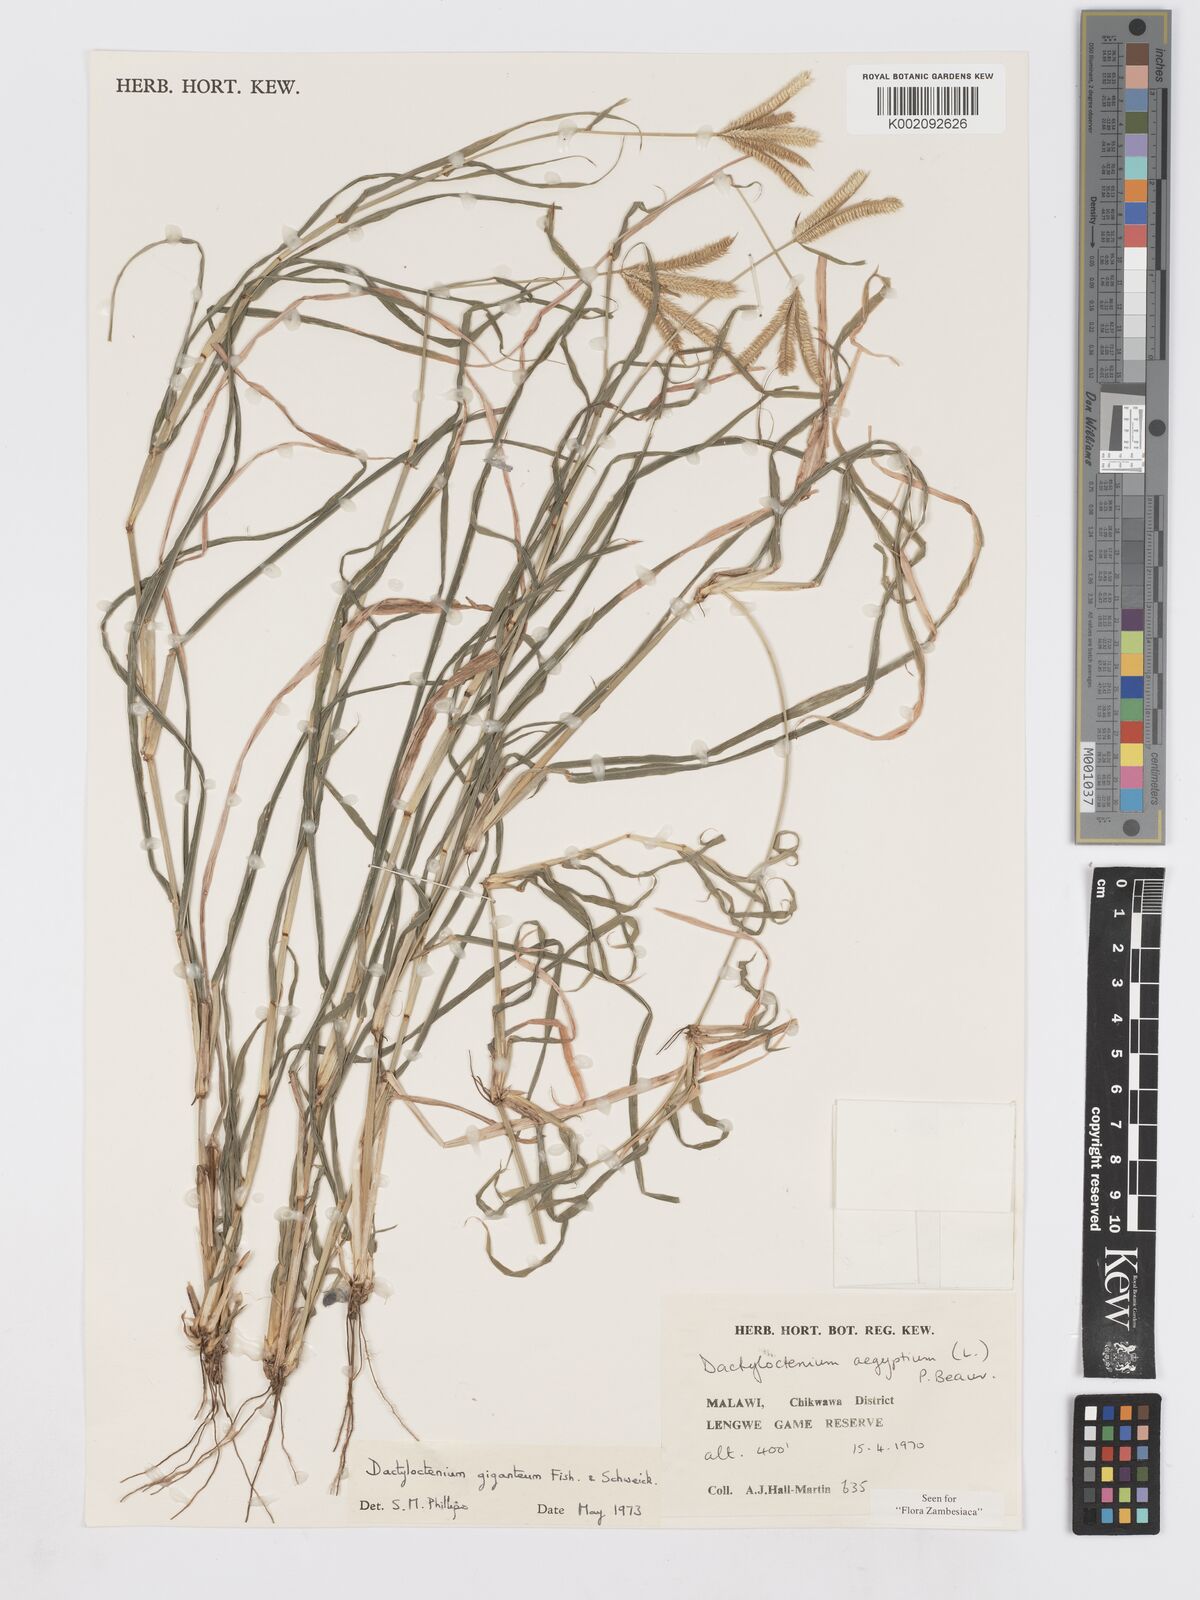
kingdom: Plantae
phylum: Tracheophyta
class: Liliopsida
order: Poales
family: Poaceae
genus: Dactyloctenium
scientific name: Dactyloctenium giganteum
